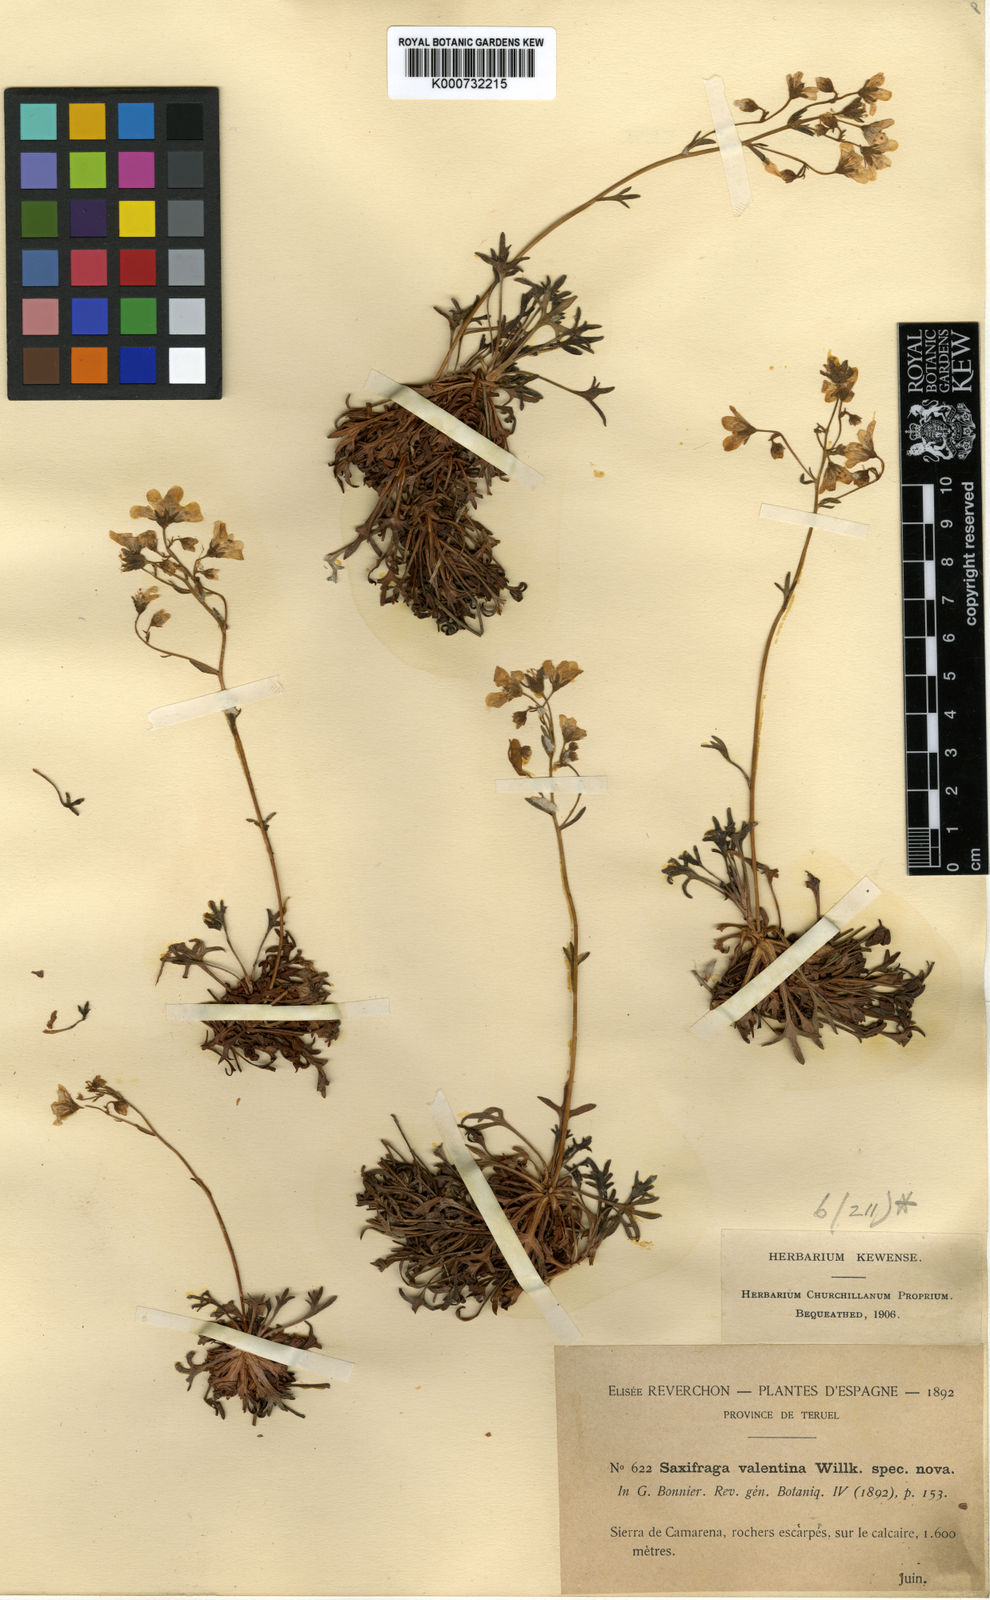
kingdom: Plantae
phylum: Tracheophyta
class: Magnoliopsida
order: Saxifragales
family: Saxifragaceae
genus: Saxifraga
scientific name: Saxifraga cuneata
